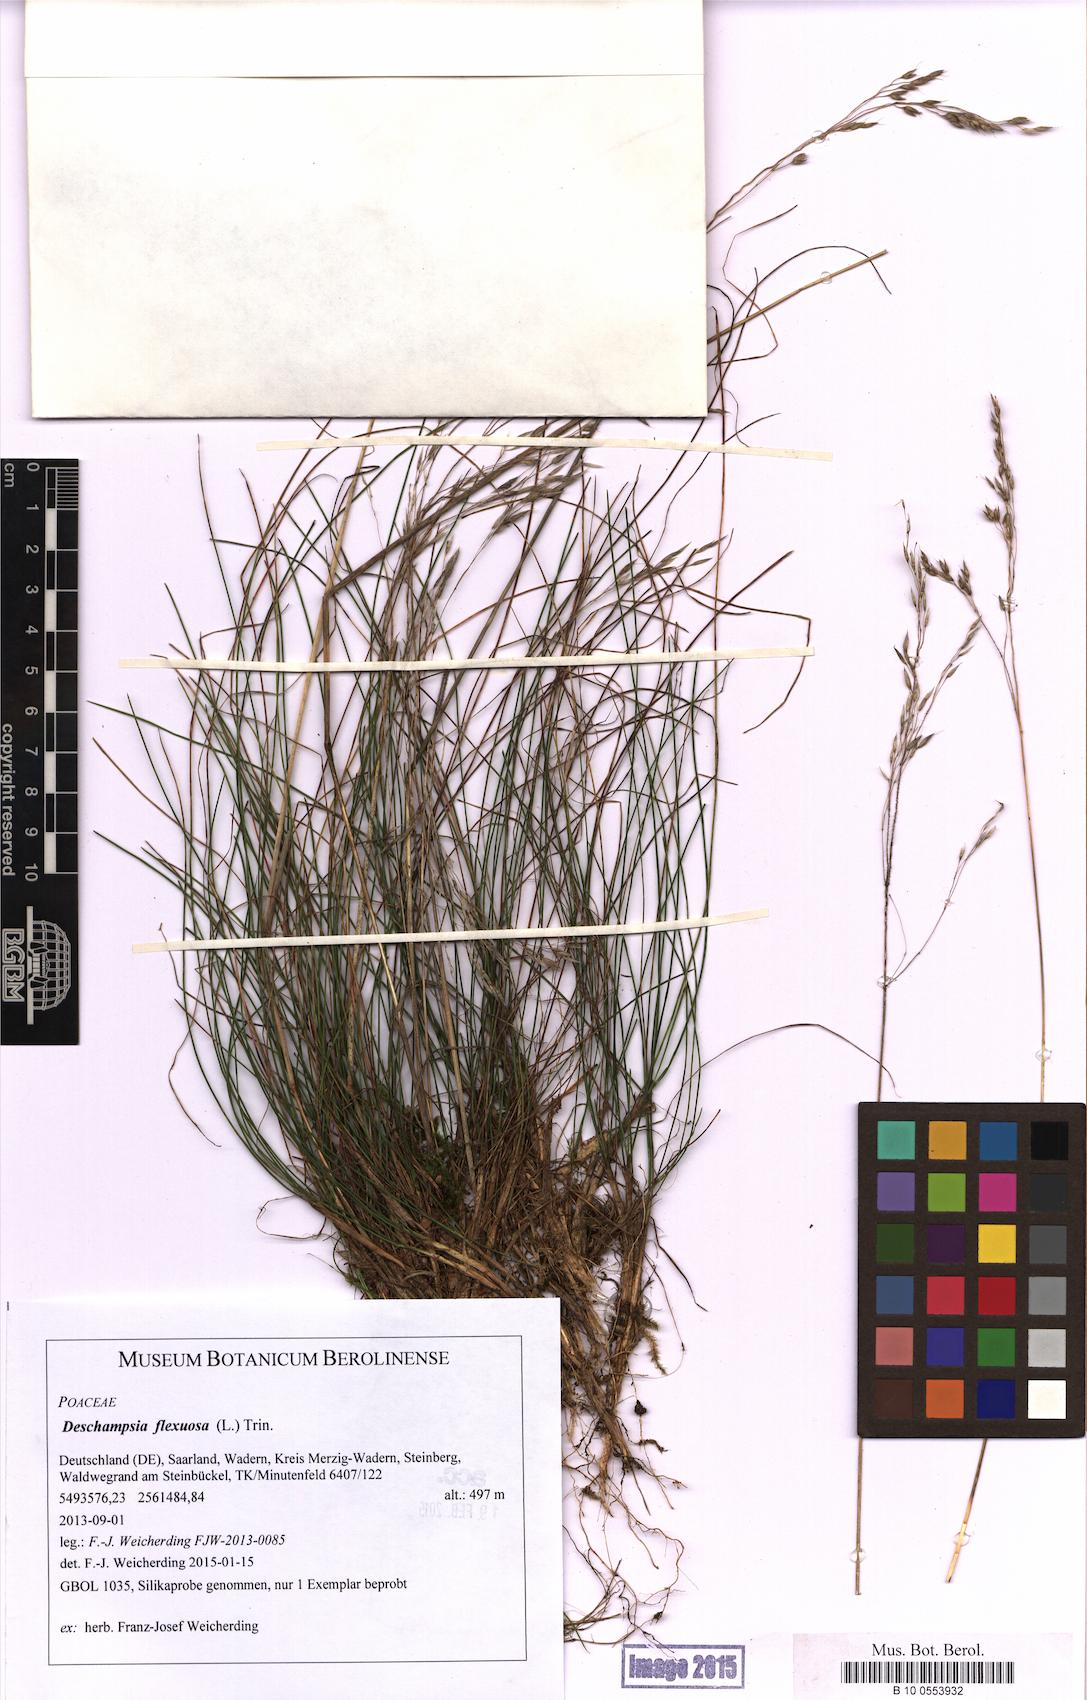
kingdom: Plantae
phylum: Tracheophyta
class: Liliopsida
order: Poales
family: Poaceae
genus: Avenella
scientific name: Avenella flexuosa
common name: Wavy hairgrass
